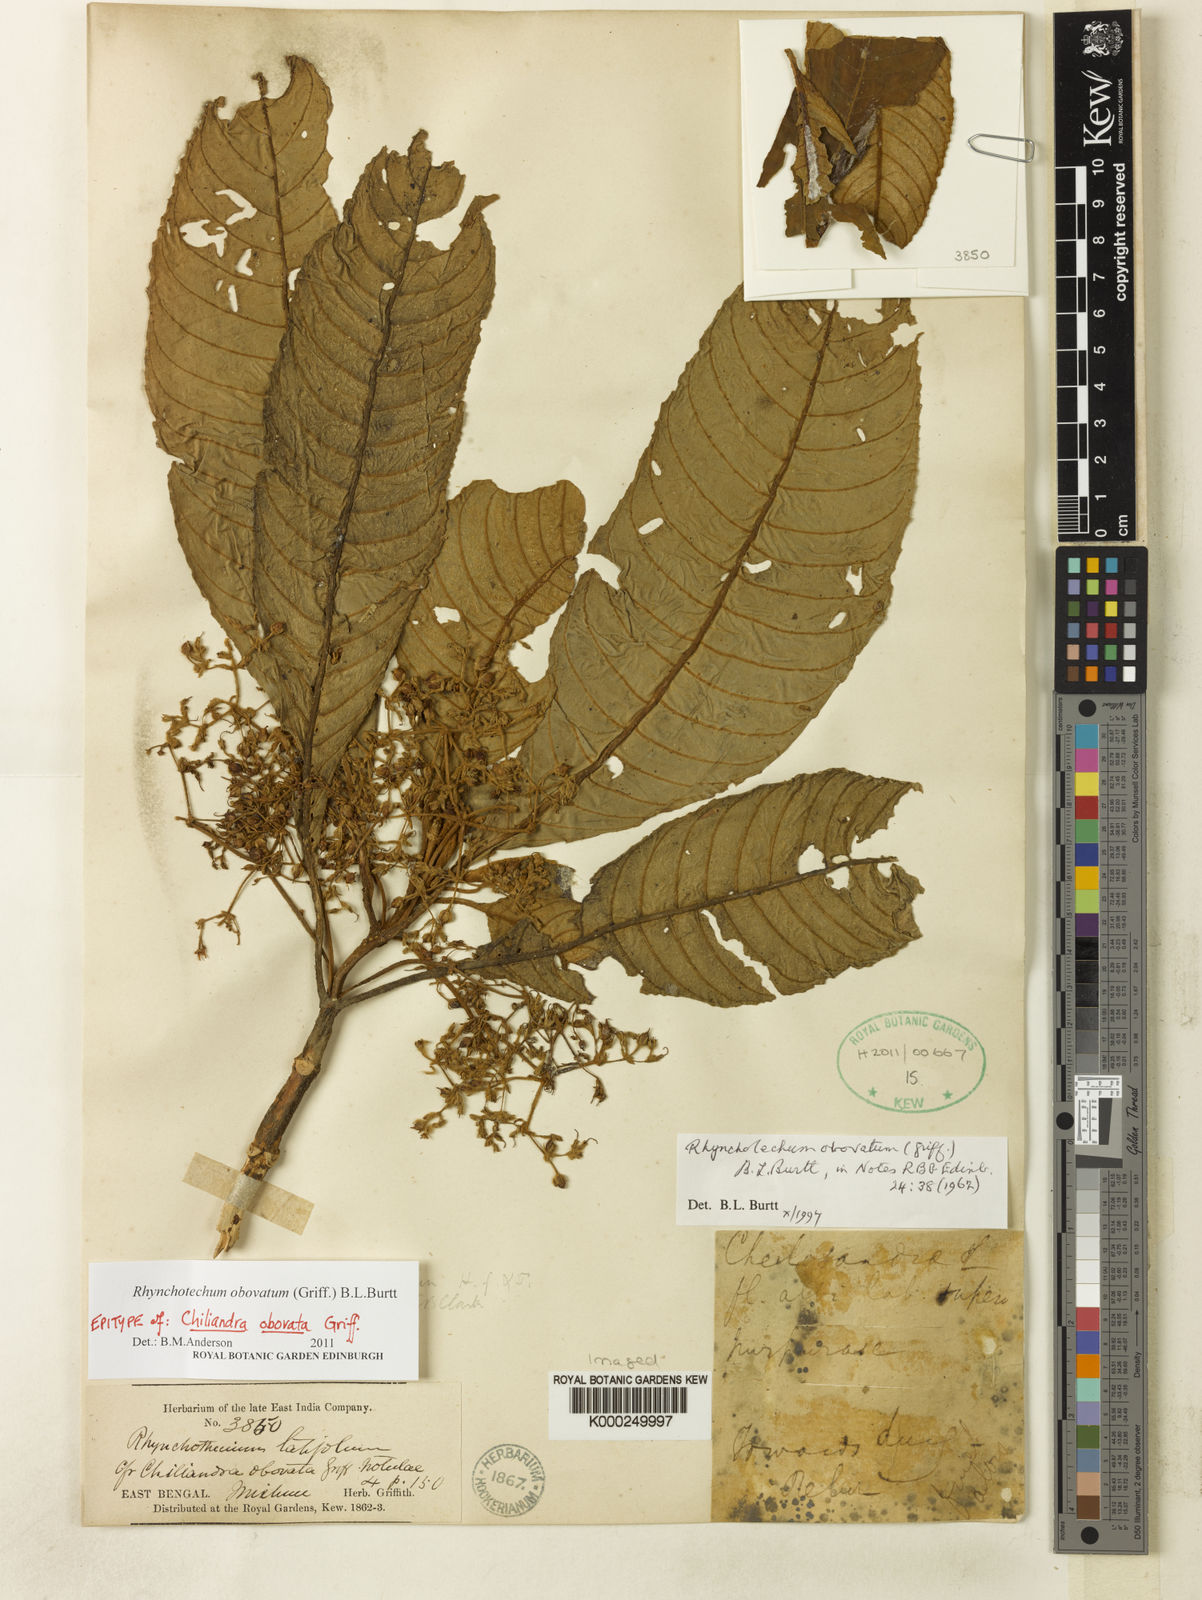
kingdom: Plantae
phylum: Tracheophyta
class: Magnoliopsida
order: Lamiales
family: Gesneriaceae
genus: Rhynchotechum
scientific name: Rhynchotechum obovatum
